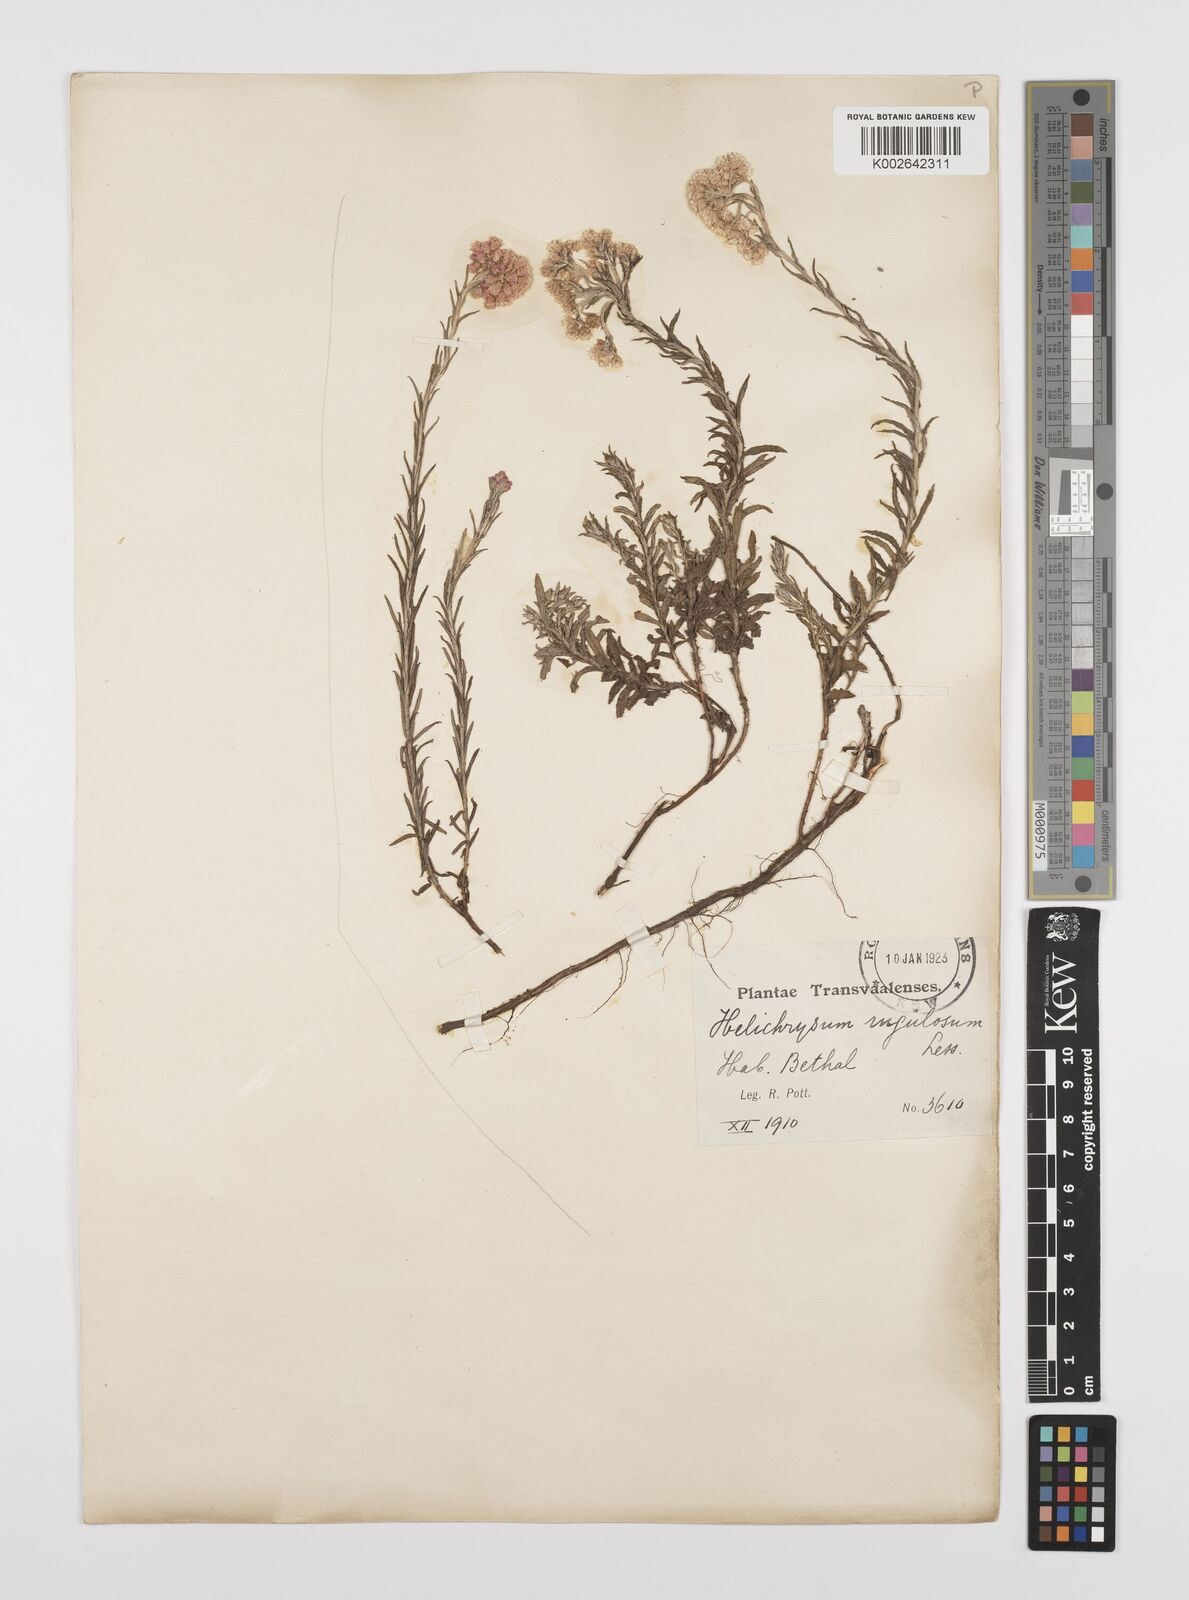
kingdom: Plantae
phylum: Tracheophyta
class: Magnoliopsida
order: Asterales
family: Asteraceae
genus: Helichrysum
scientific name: Helichrysum rugulosum
